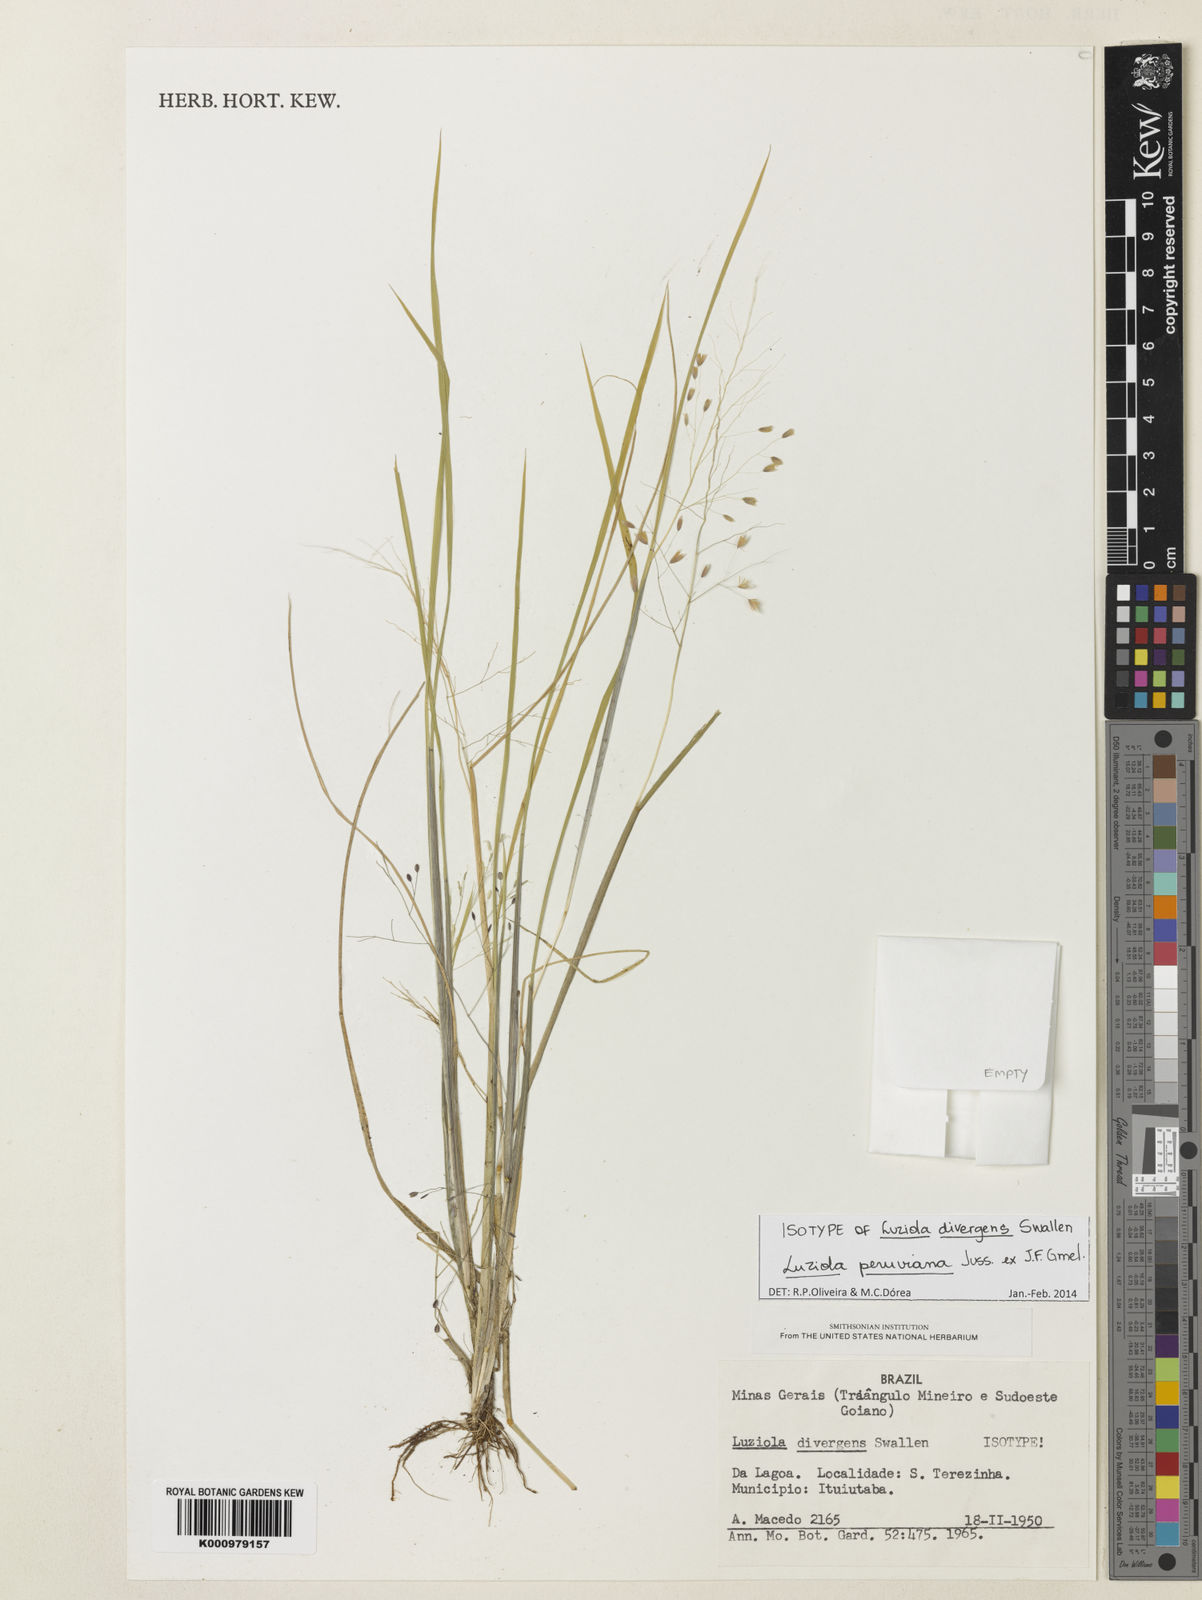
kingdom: Plantae
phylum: Tracheophyta
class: Liliopsida
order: Poales
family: Poaceae
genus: Luziola
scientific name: Luziola divergens
